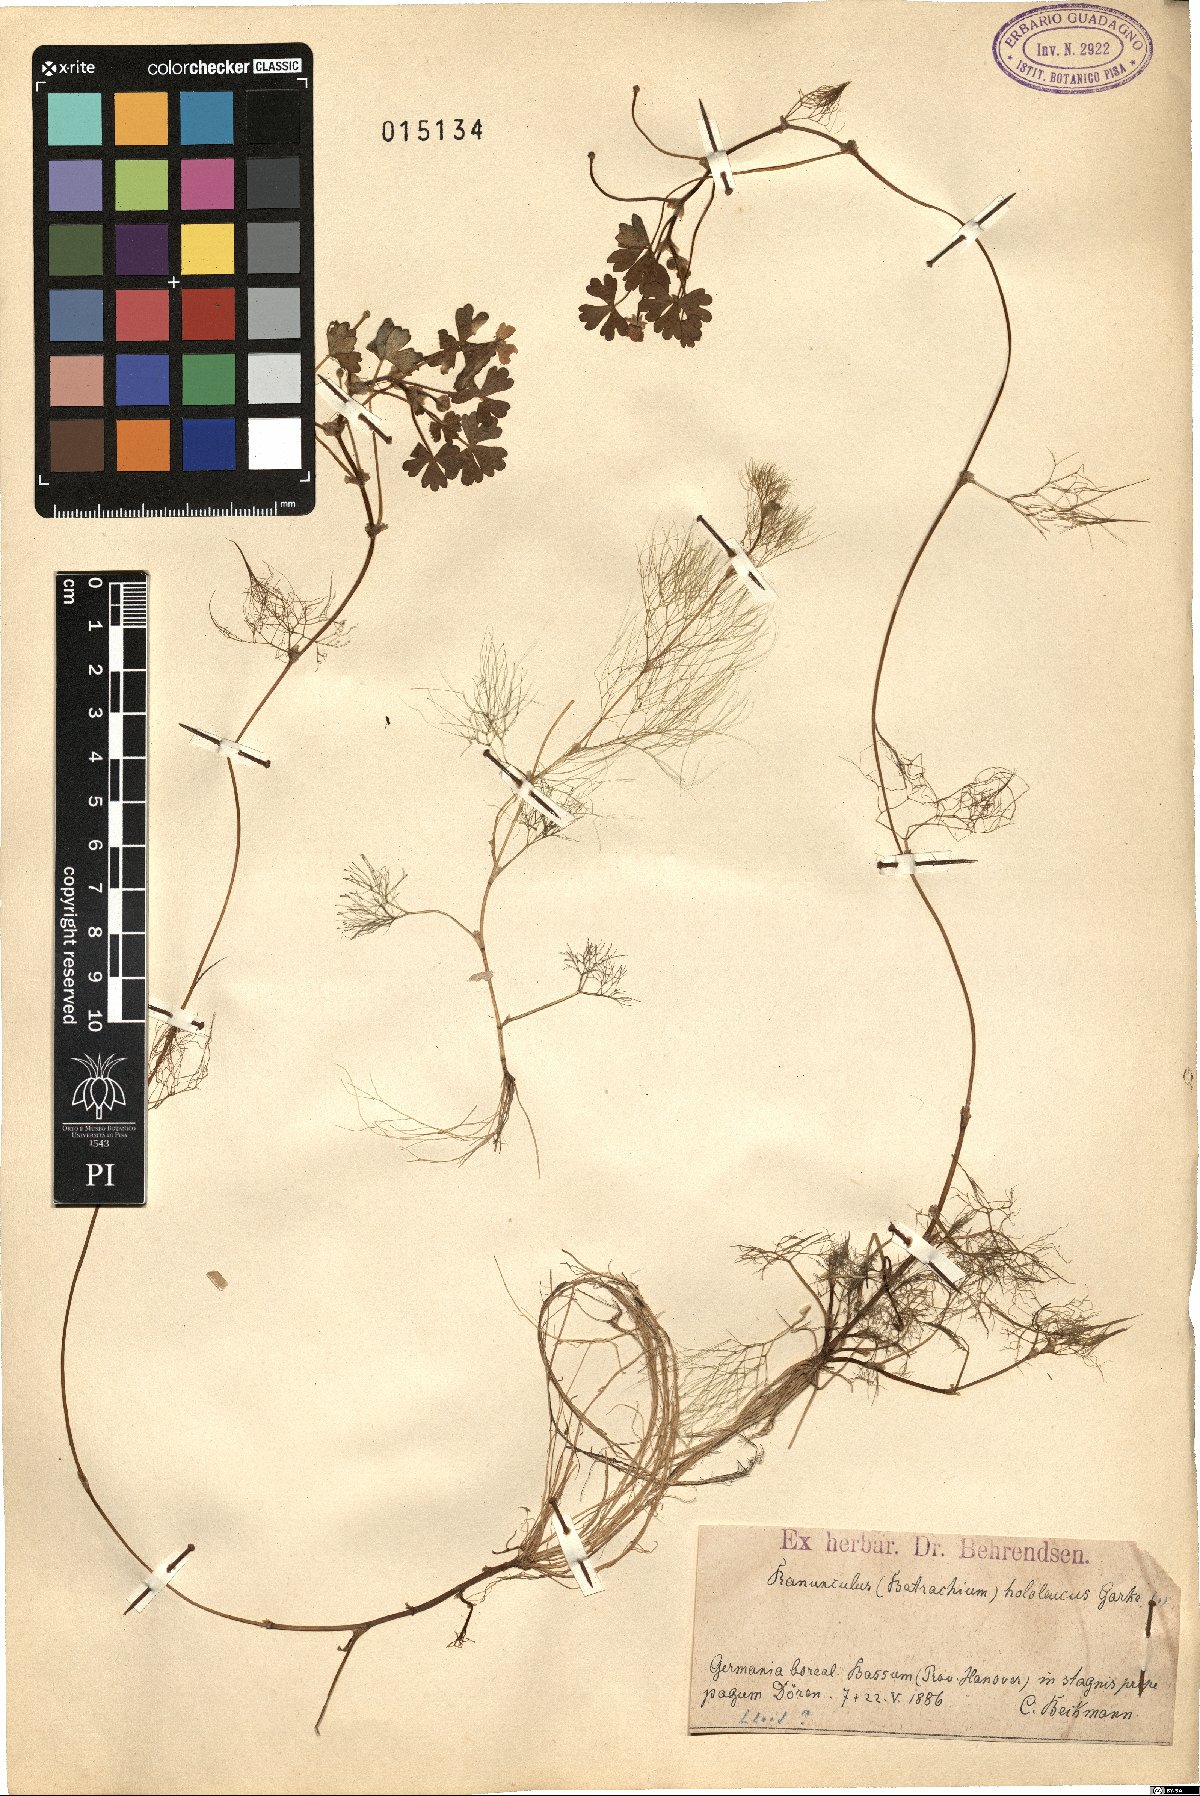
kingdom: Plantae
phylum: Tracheophyta
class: Magnoliopsida
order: Ranunculales
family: Ranunculaceae
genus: Ranunculus
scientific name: Ranunculus
